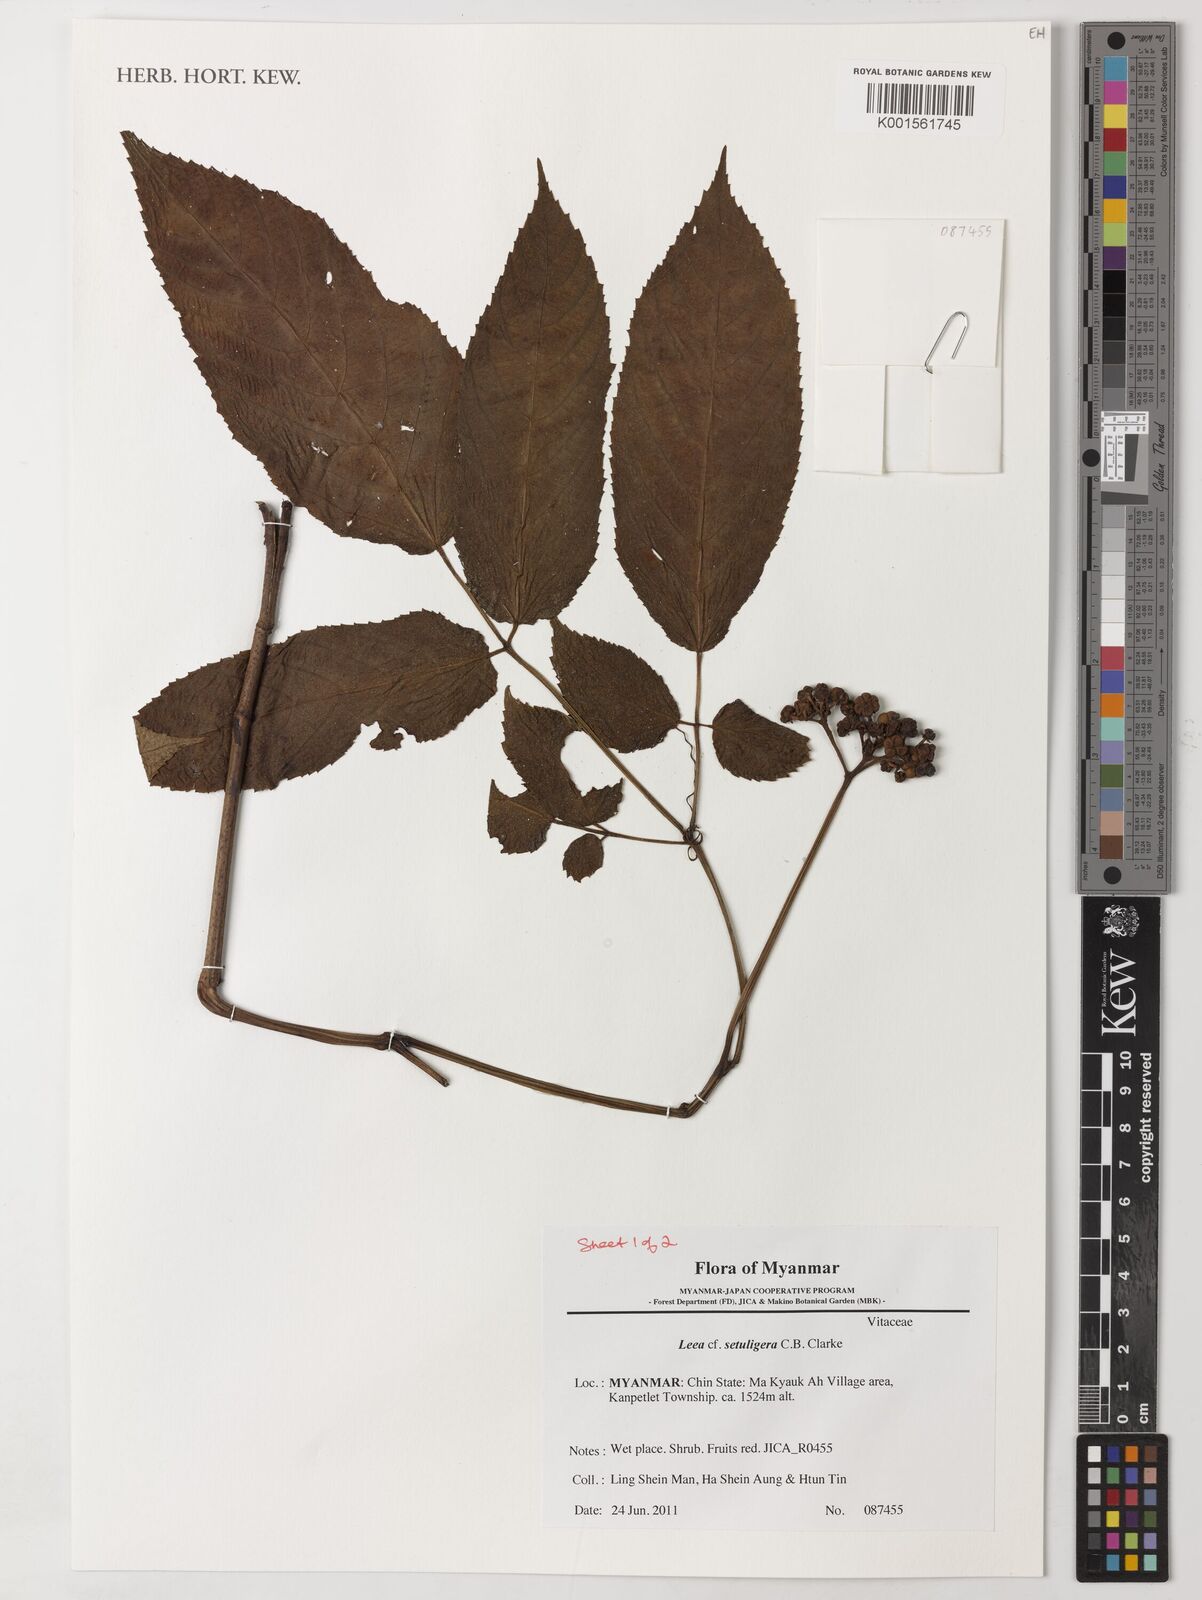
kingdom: Plantae
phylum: Tracheophyta
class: Magnoliopsida
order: Vitales
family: Vitaceae
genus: Leea
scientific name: Leea setuligera
